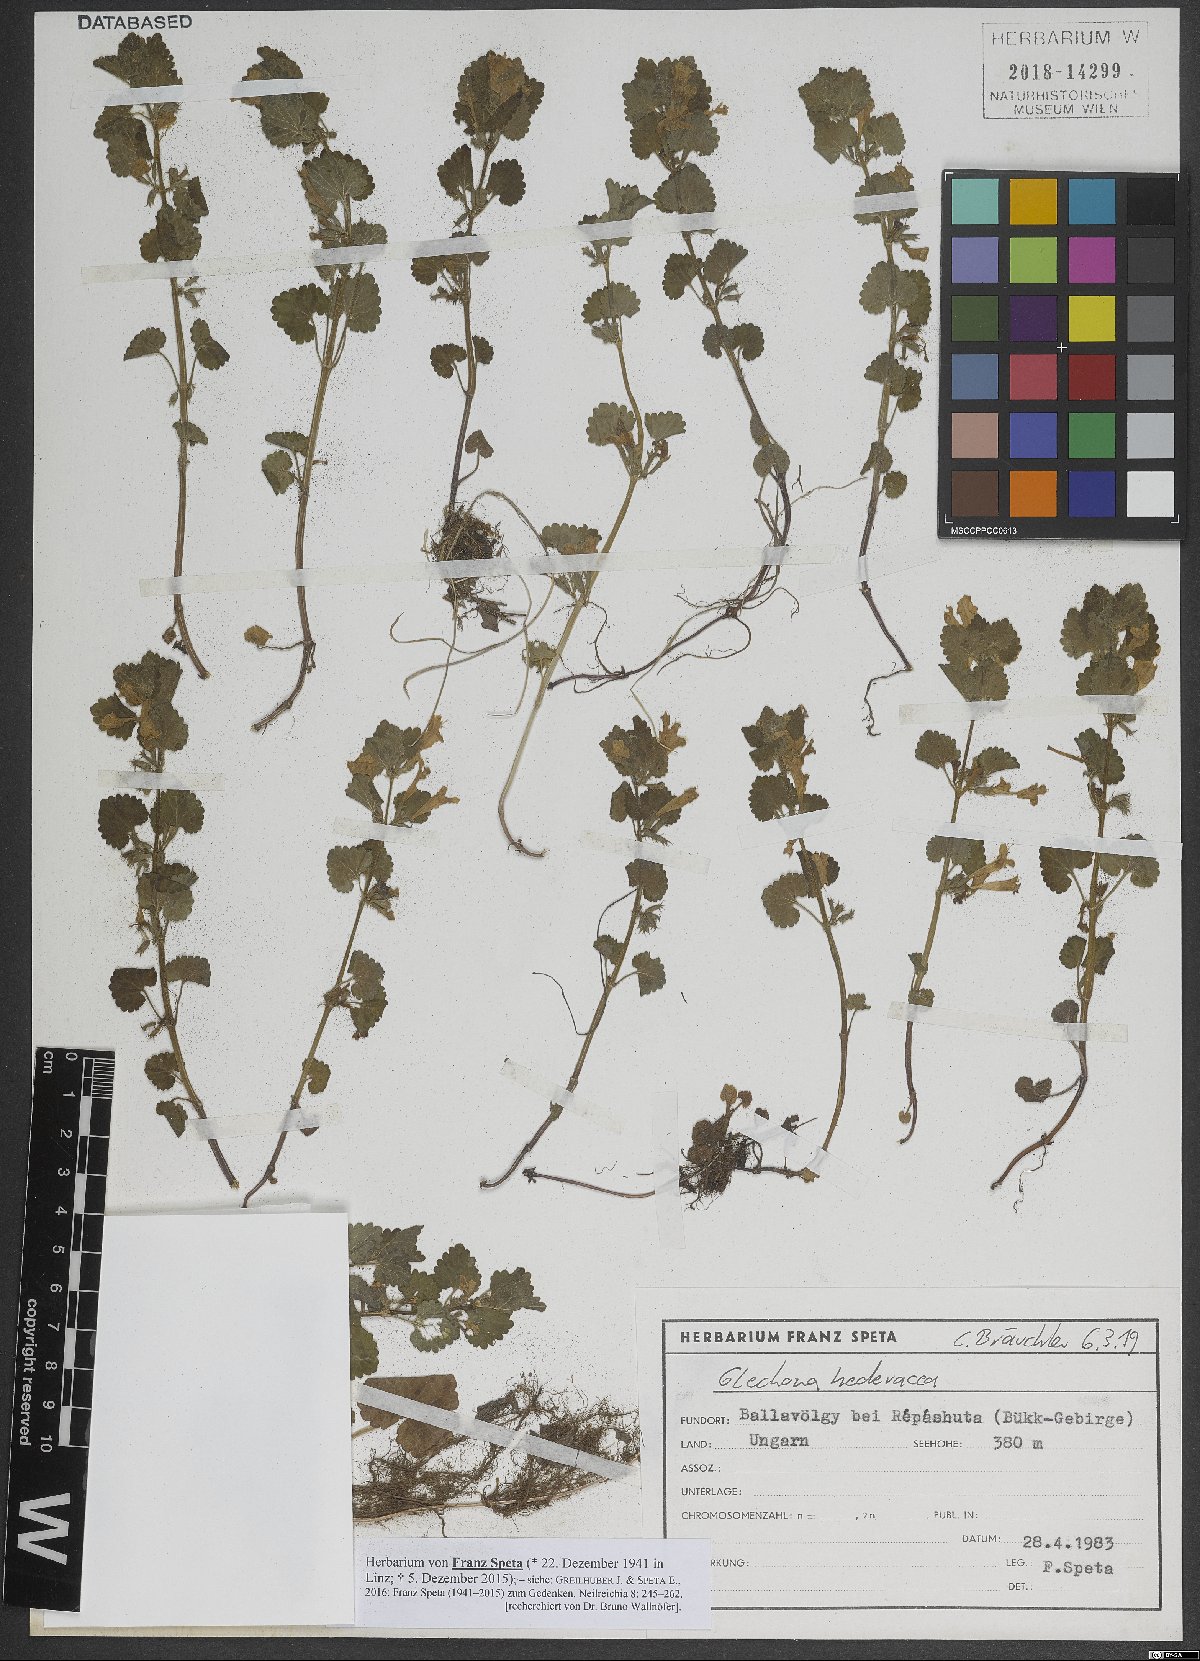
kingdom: Plantae
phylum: Tracheophyta
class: Magnoliopsida
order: Lamiales
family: Lamiaceae
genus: Glechoma
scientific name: Glechoma hederacea
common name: Ground ivy
